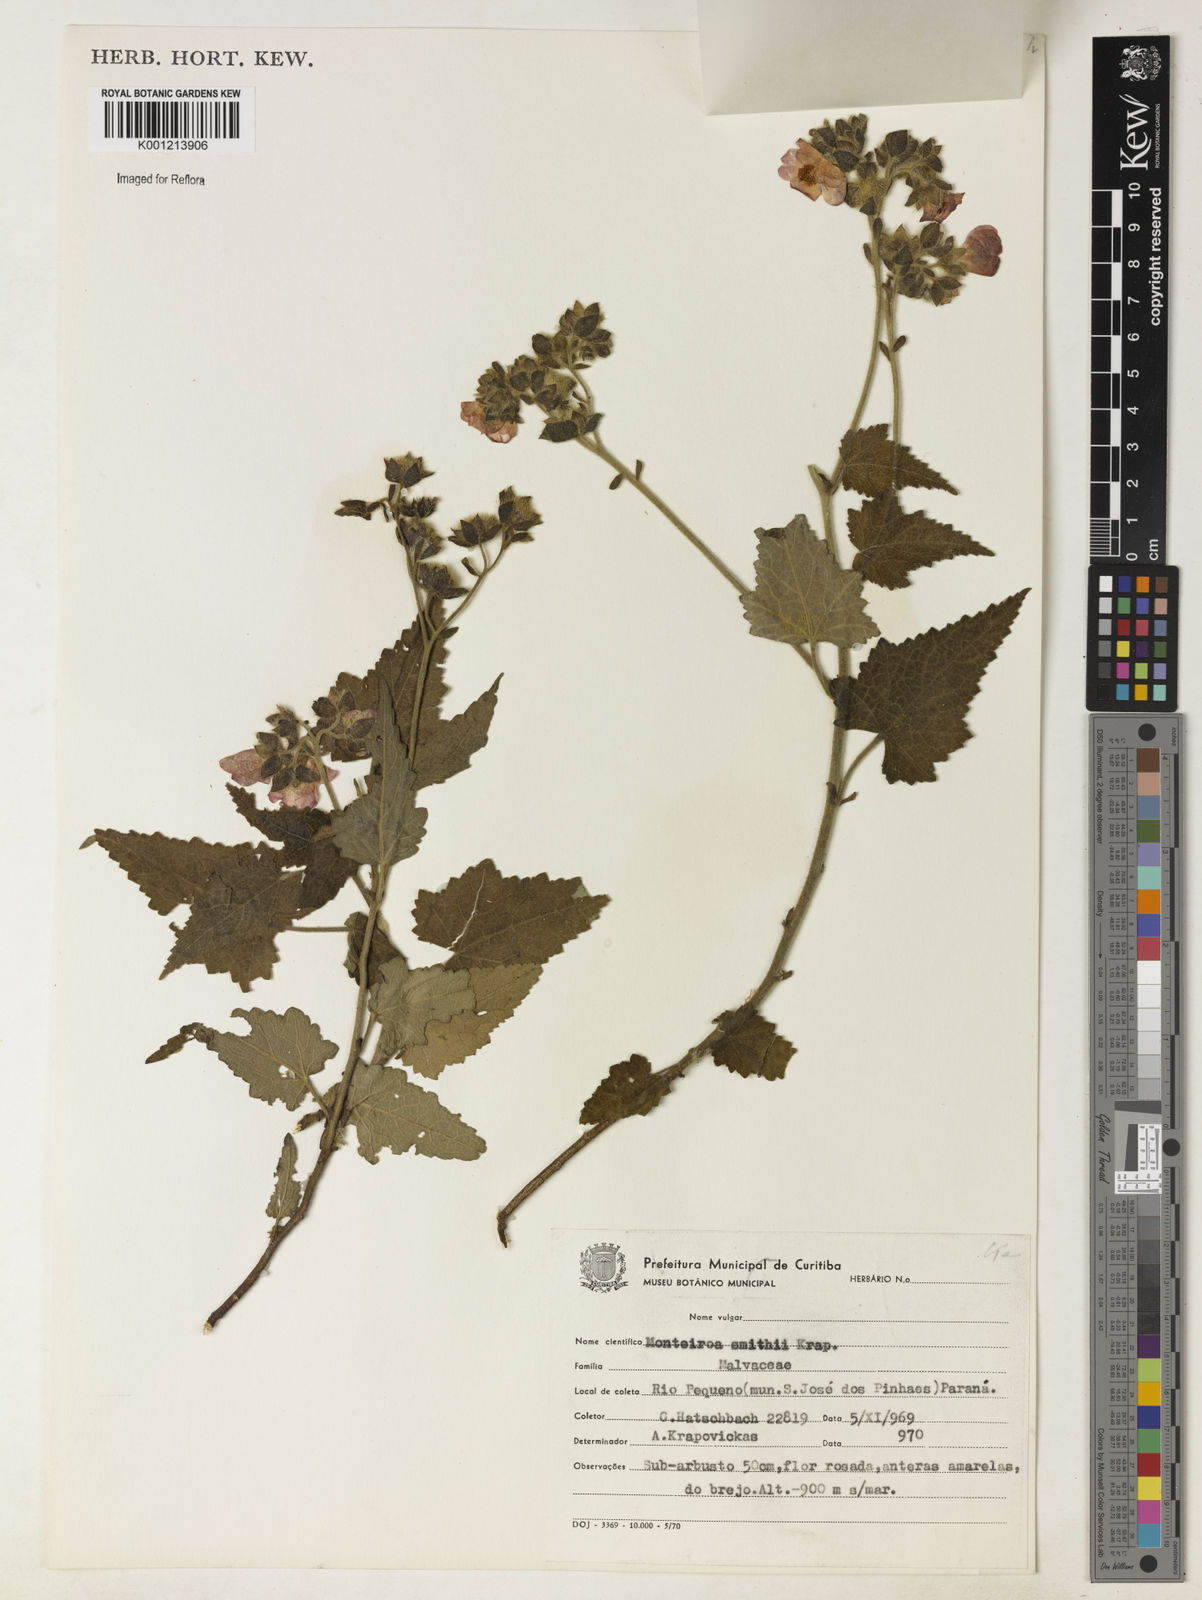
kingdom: Plantae
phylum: Tracheophyta
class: Magnoliopsida
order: Malvales
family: Malvaceae
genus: Monteiroa
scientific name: Monteiroa smithii
